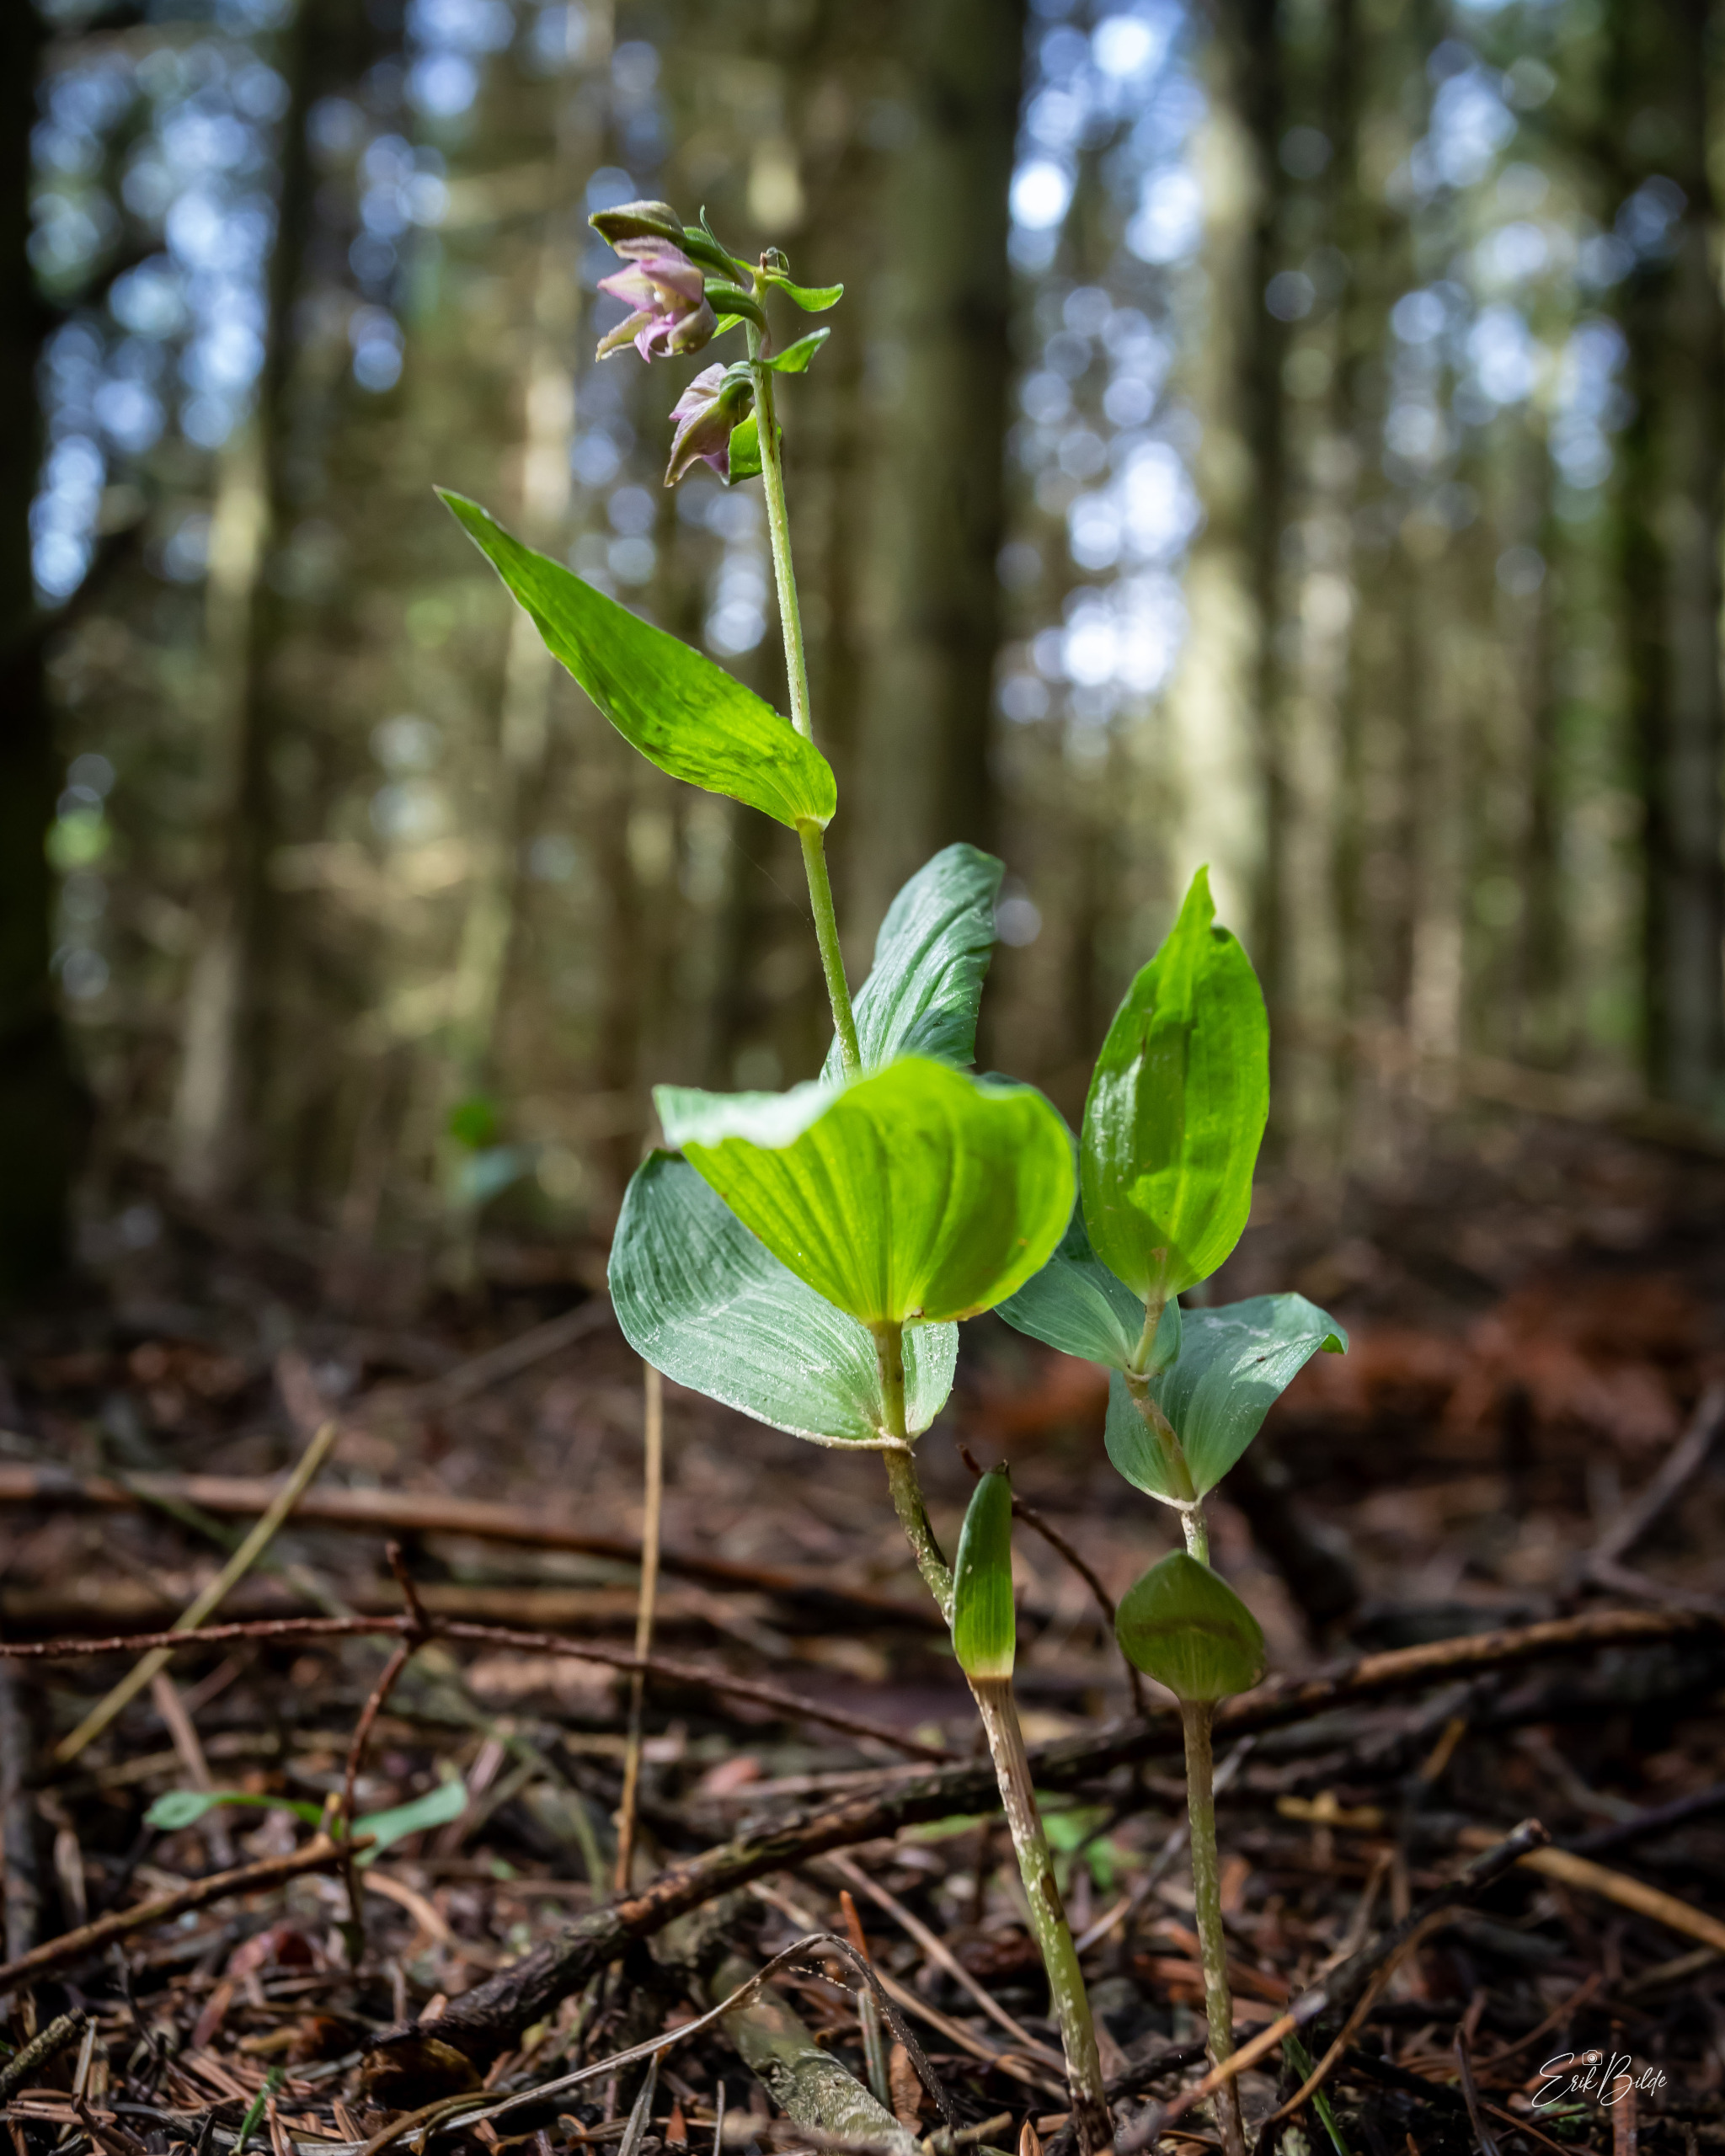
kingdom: Plantae
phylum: Tracheophyta
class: Liliopsida
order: Asparagales
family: Orchidaceae
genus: Epipactis
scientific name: Epipactis helleborine
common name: Skov-hullæbe
